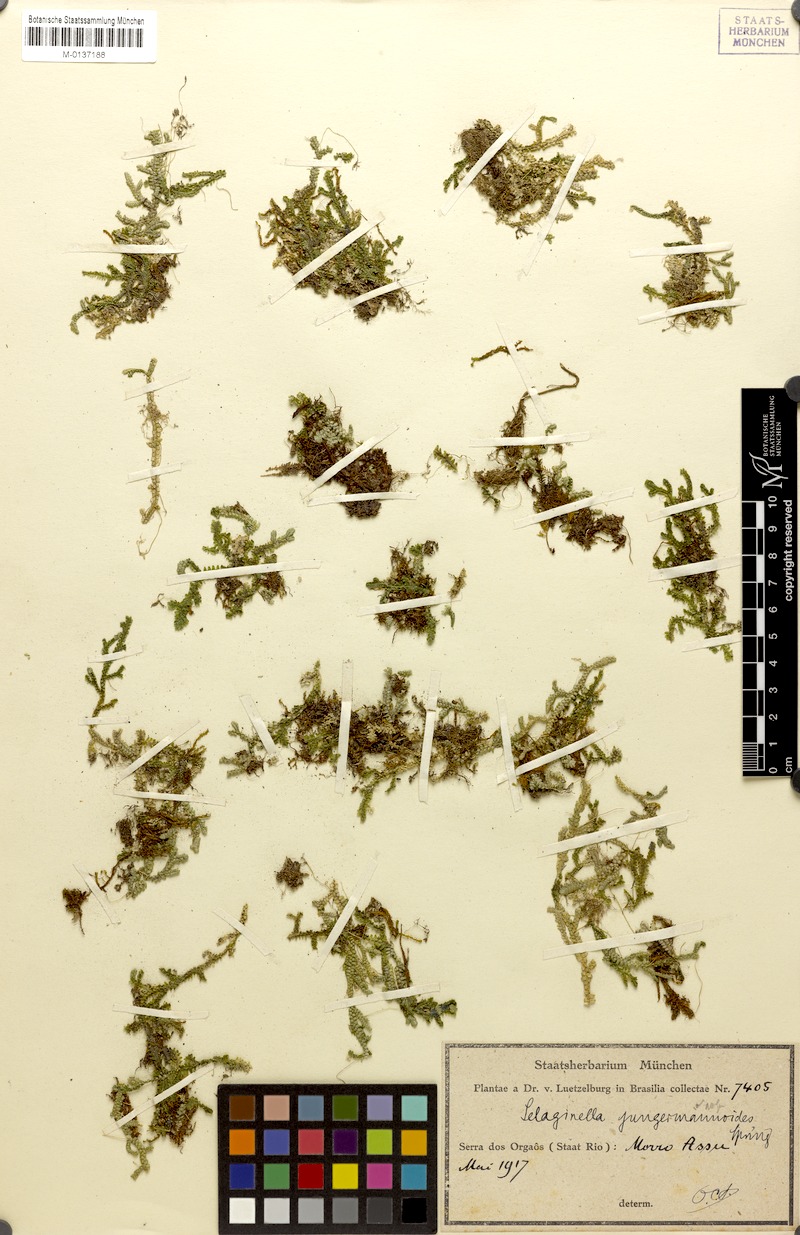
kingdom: Plantae
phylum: Tracheophyta
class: Lycopodiopsida
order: Selaginellales
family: Selaginellaceae
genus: Selaginella
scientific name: Selaginella jungermannioides
